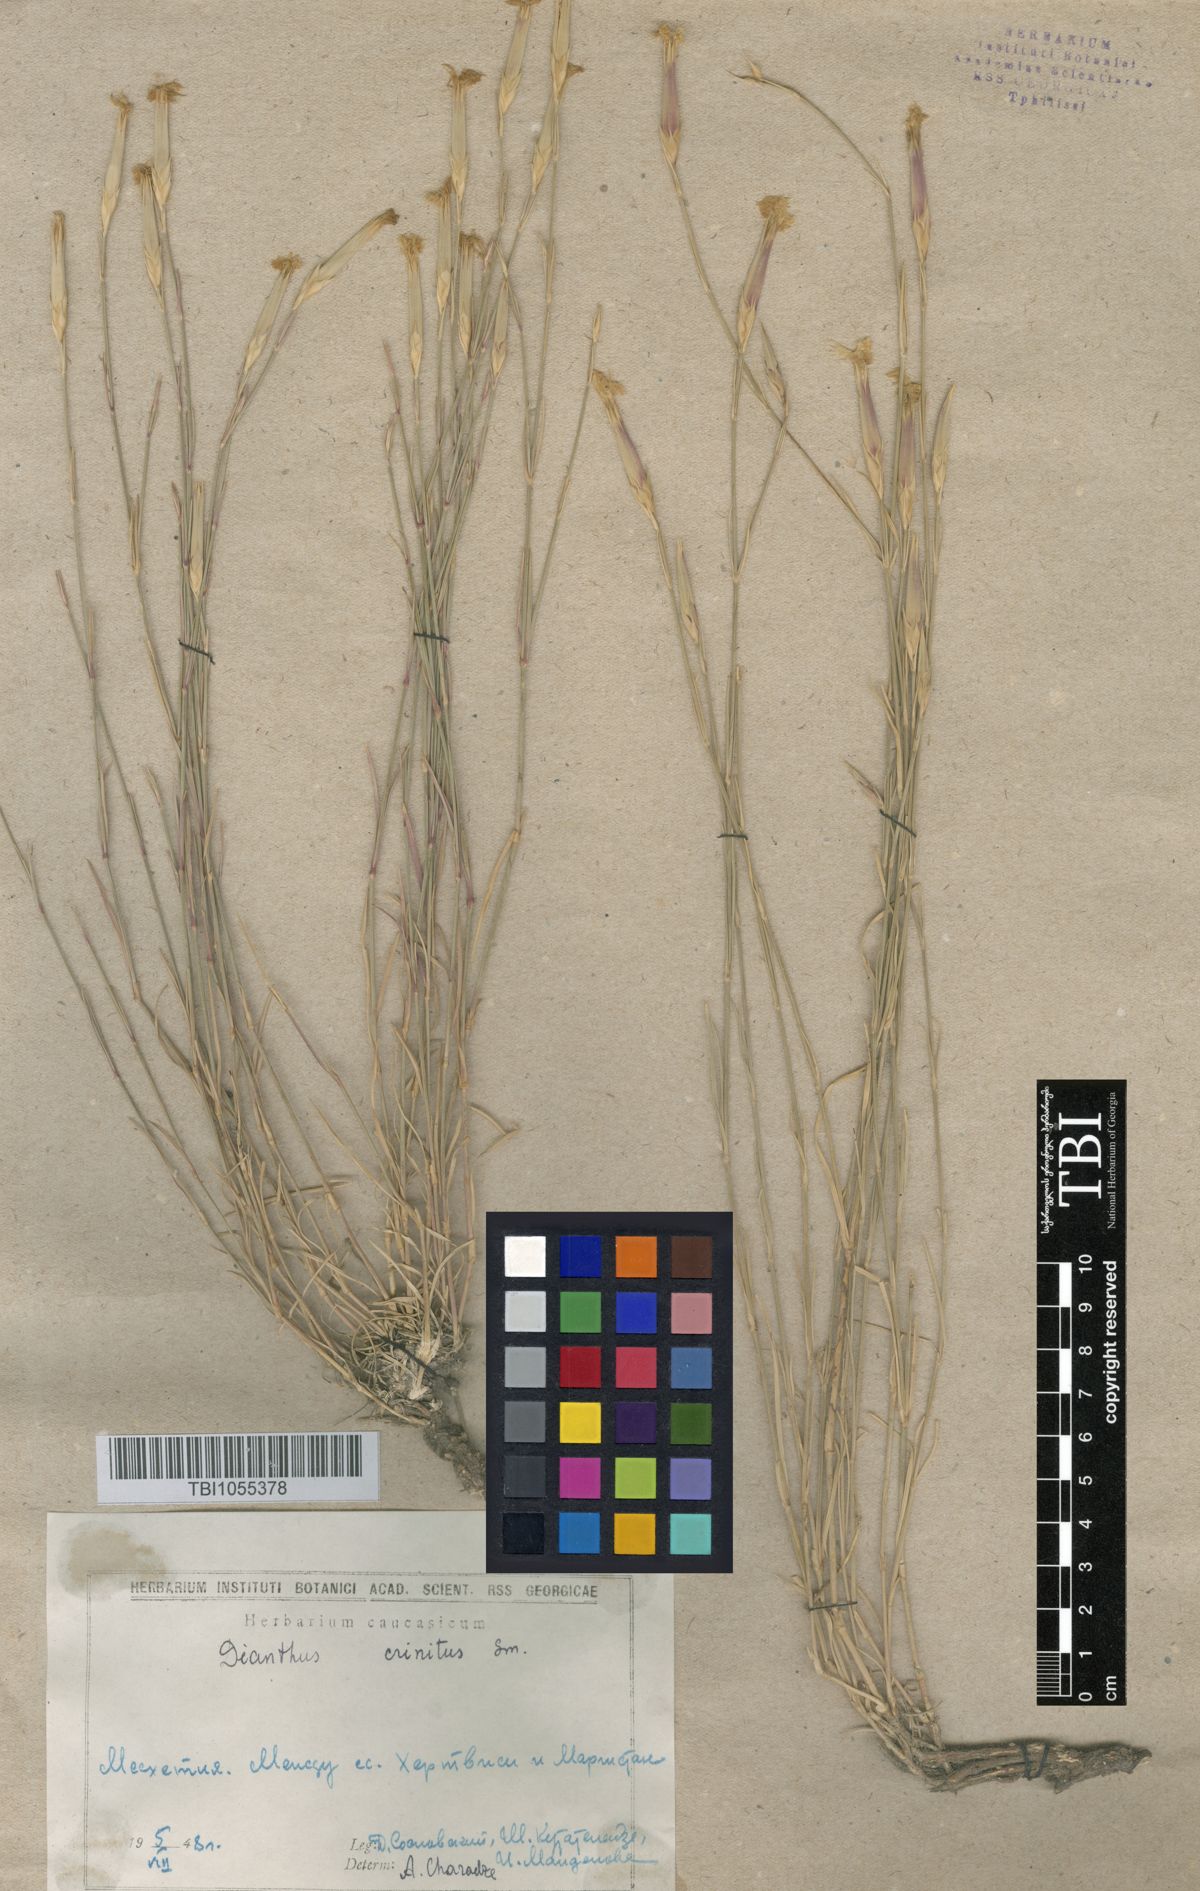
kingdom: Plantae
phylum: Tracheophyta
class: Magnoliopsida
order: Caryophyllales
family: Caryophyllaceae
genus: Dianthus
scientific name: Dianthus crinitus
